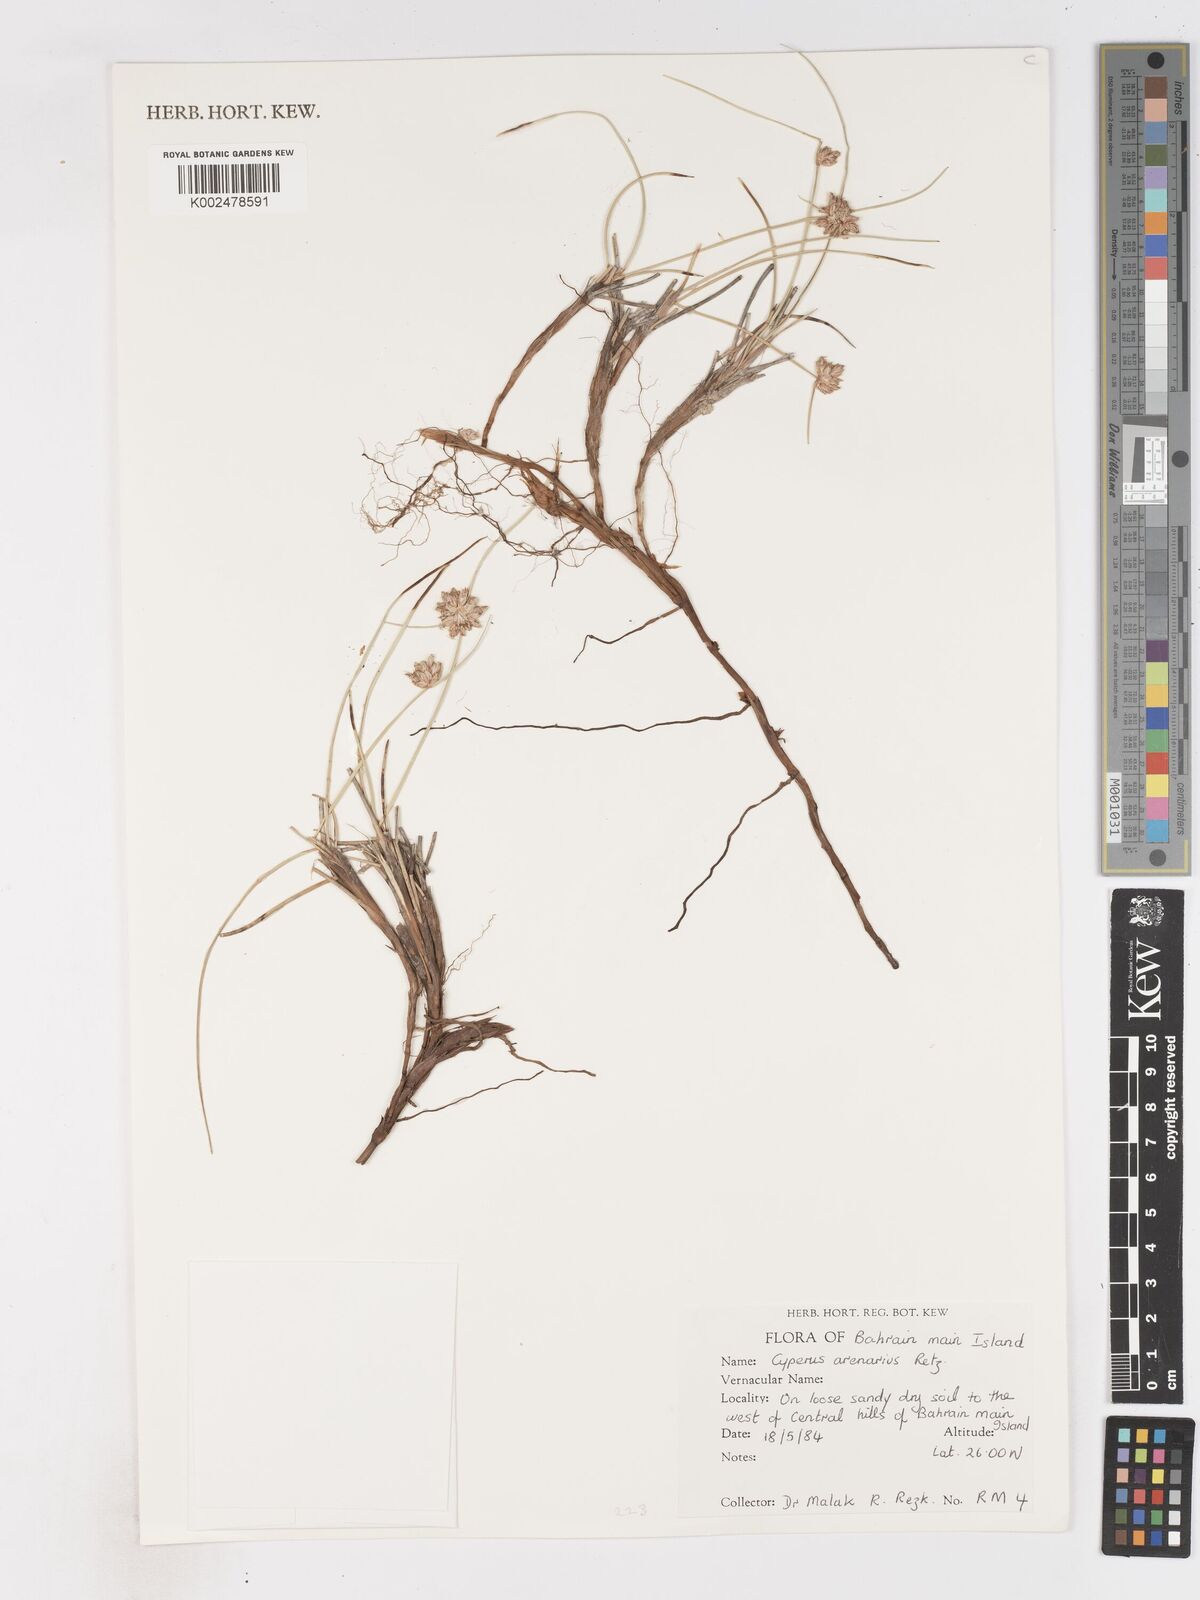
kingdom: Plantae
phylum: Tracheophyta
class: Liliopsida
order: Poales
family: Cyperaceae
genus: Cyperus
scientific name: Cyperus arenarius
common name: Dwarf sedge
